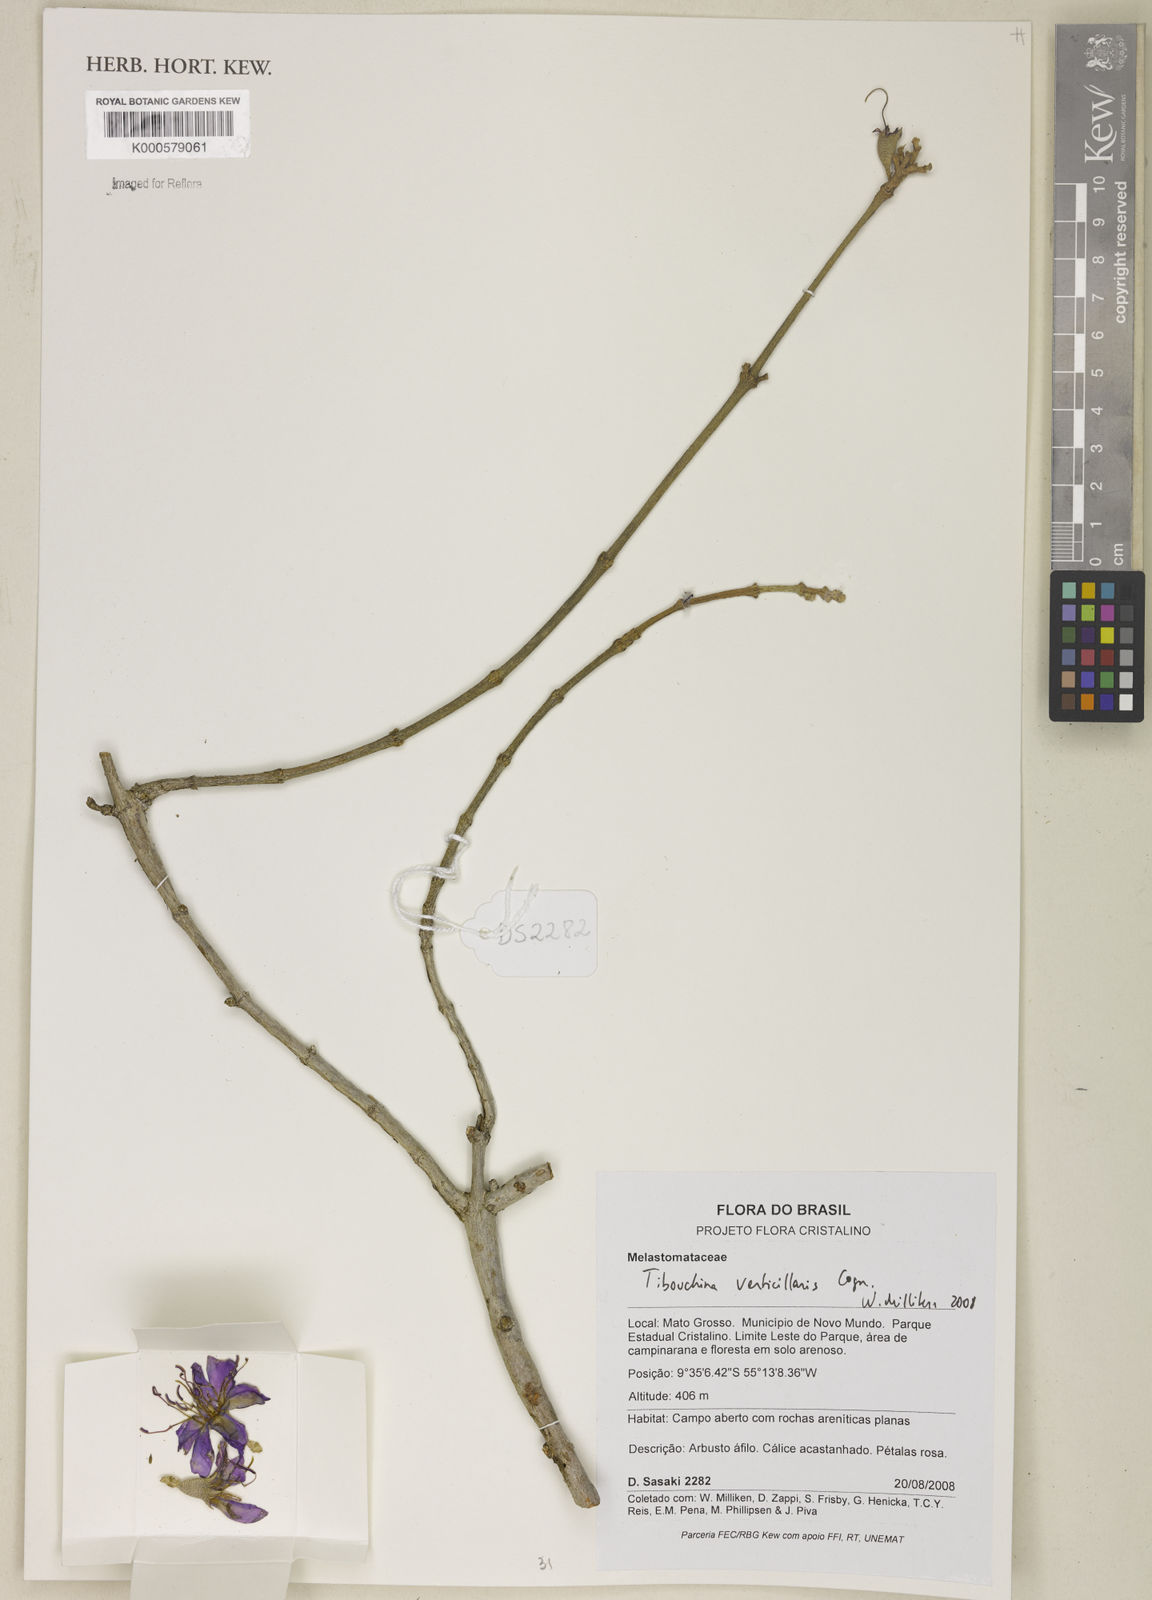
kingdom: Plantae
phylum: Tracheophyta
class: Magnoliopsida
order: Myrtales
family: Melastomataceae
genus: Tibouchina
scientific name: Tibouchina verticillaris
